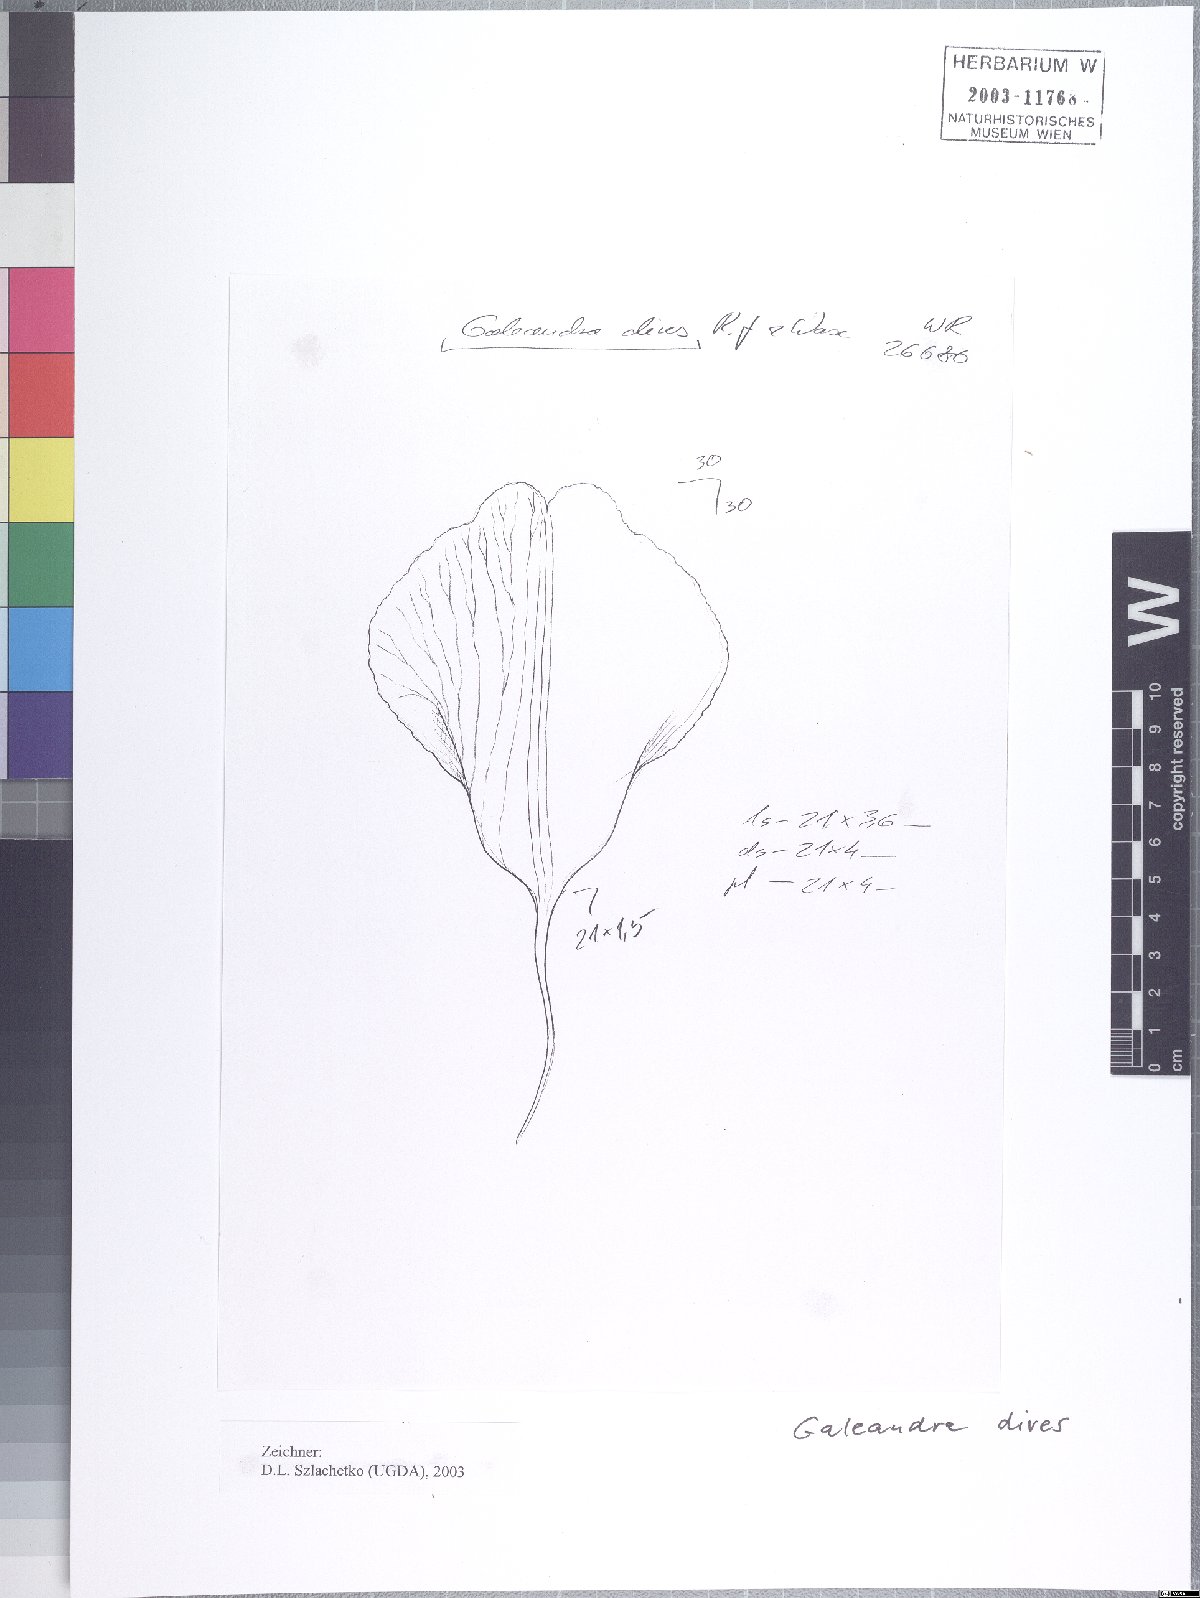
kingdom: Plantae
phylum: Tracheophyta
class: Liliopsida
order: Asparagales
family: Orchidaceae
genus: Galeandra
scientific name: Galeandra dives
